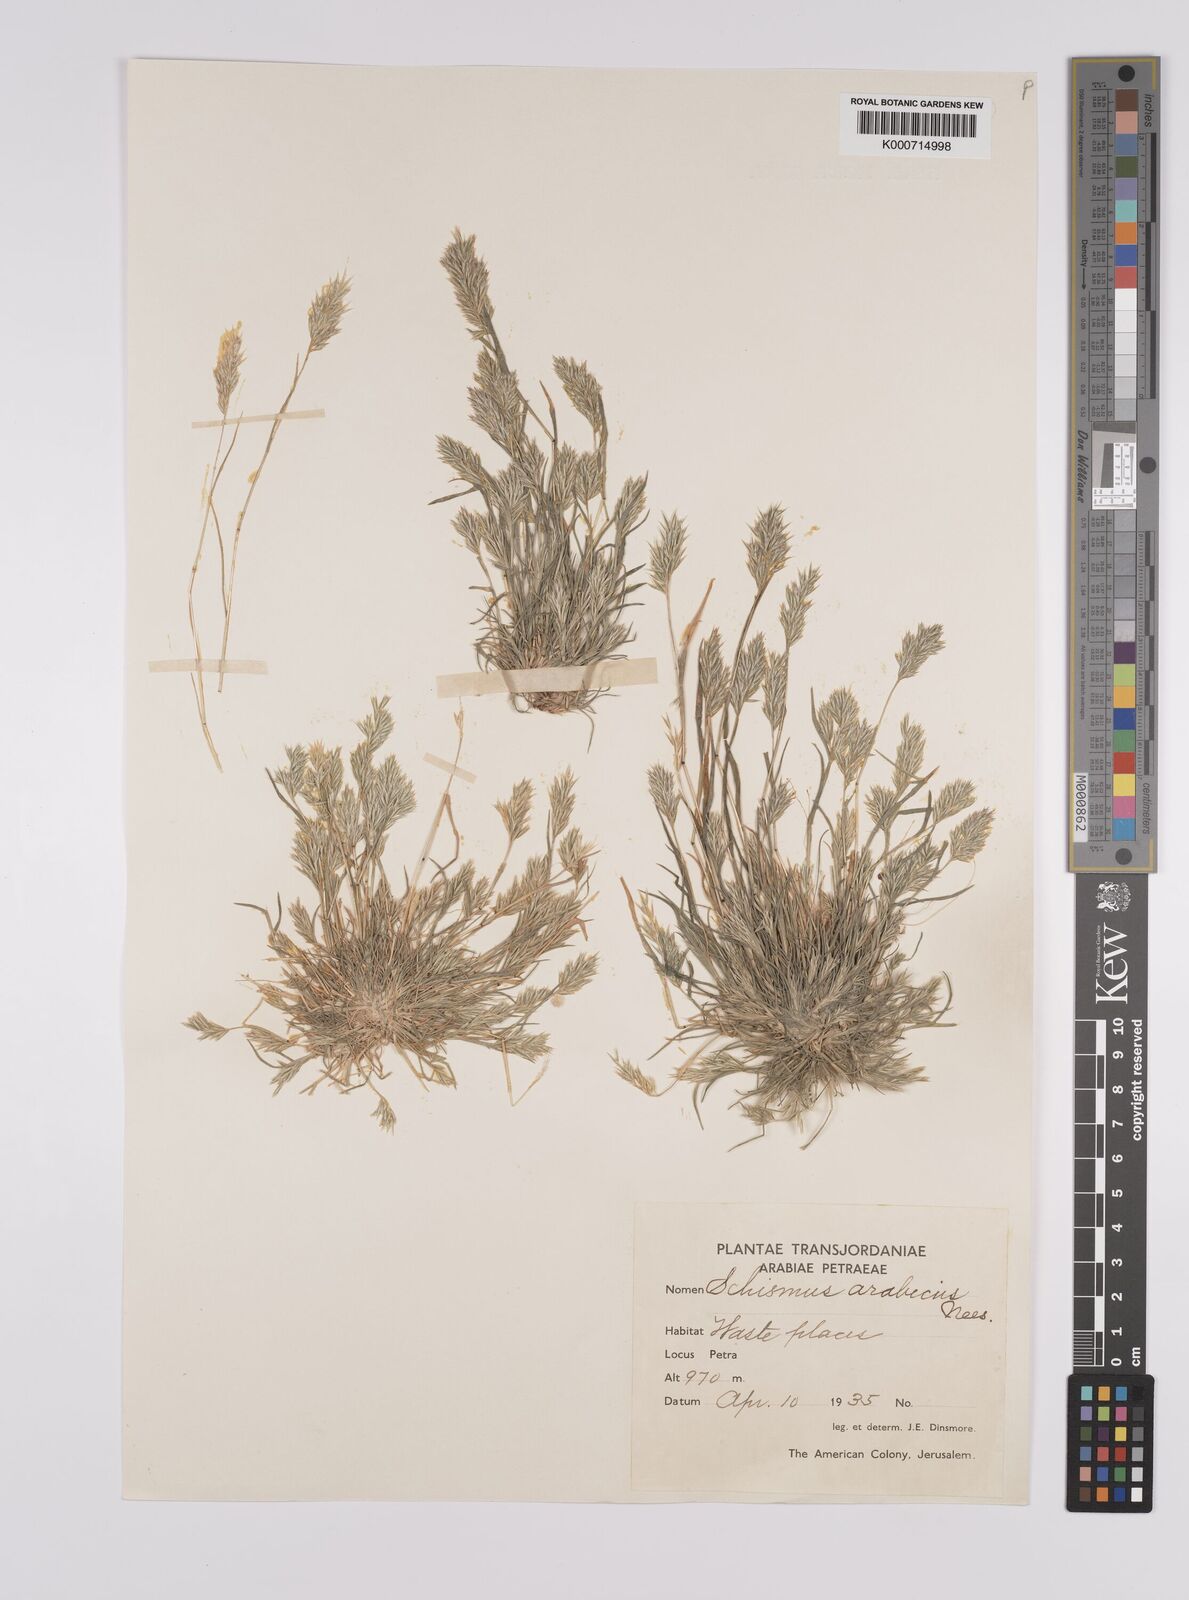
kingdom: Plantae
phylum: Tracheophyta
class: Liliopsida
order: Poales
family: Poaceae
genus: Schismus
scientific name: Schismus arabicus
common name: Arabian schismus
